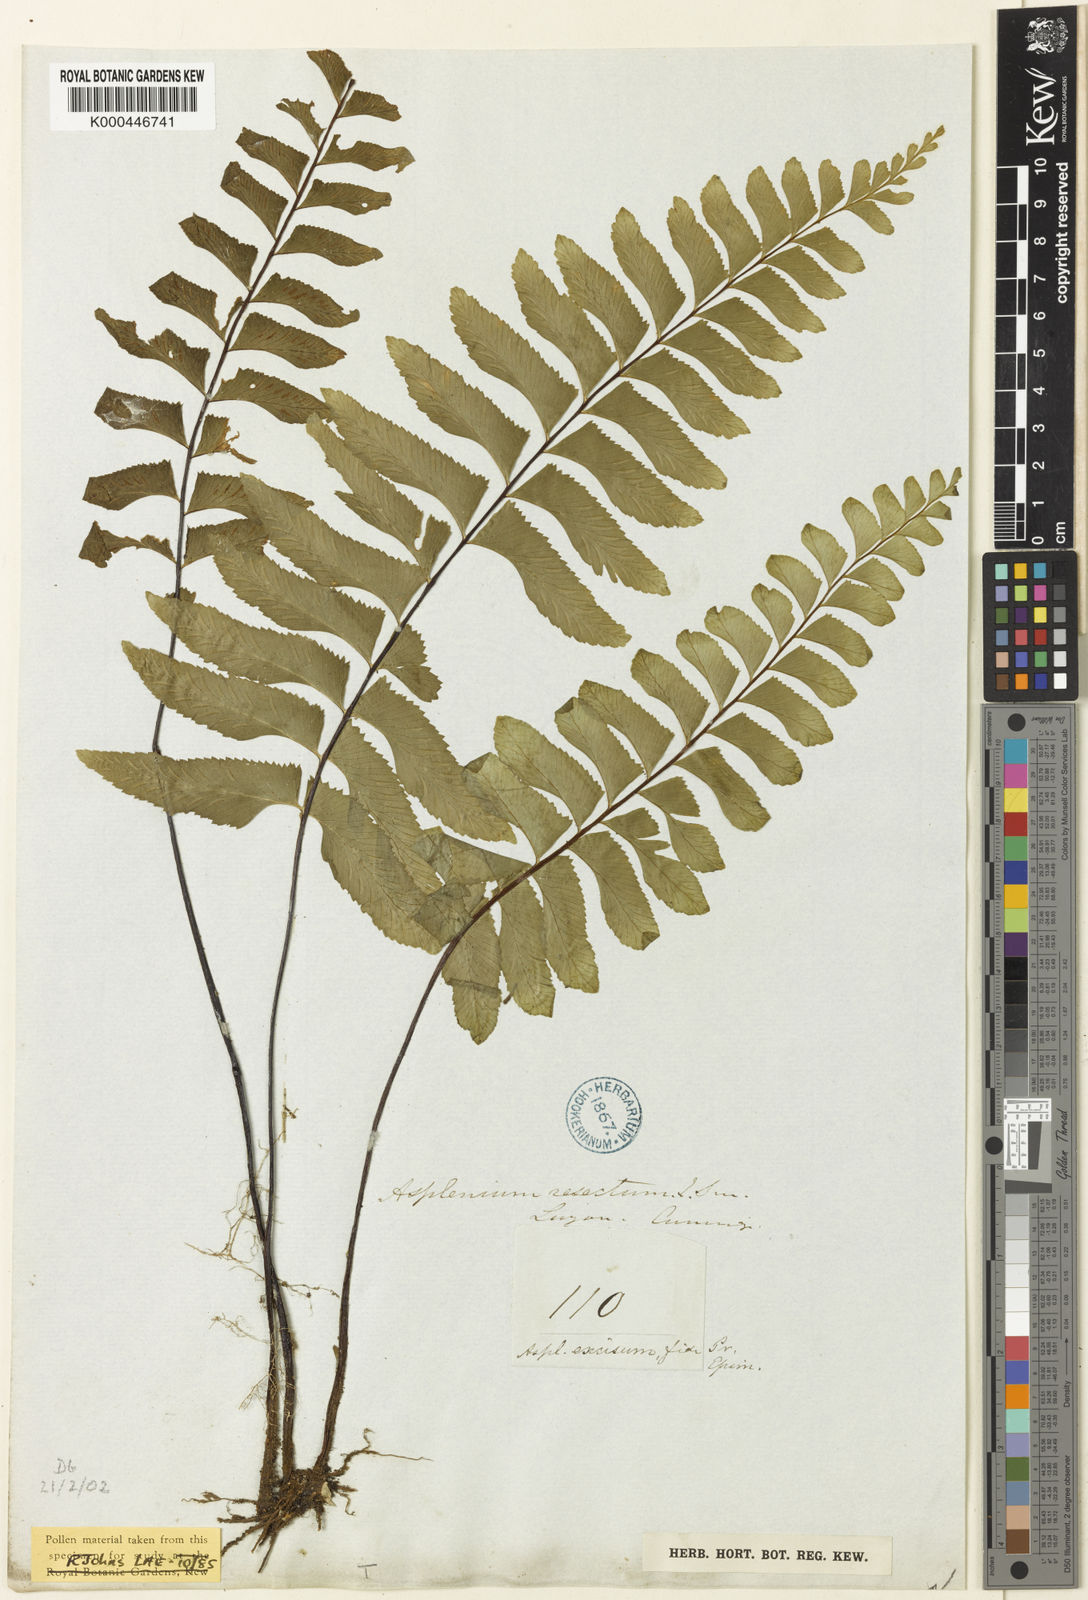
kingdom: Plantae
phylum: Tracheophyta
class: Polypodiopsida
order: Polypodiales
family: Aspleniaceae
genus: Hymenasplenium
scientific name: Hymenasplenium excisum
